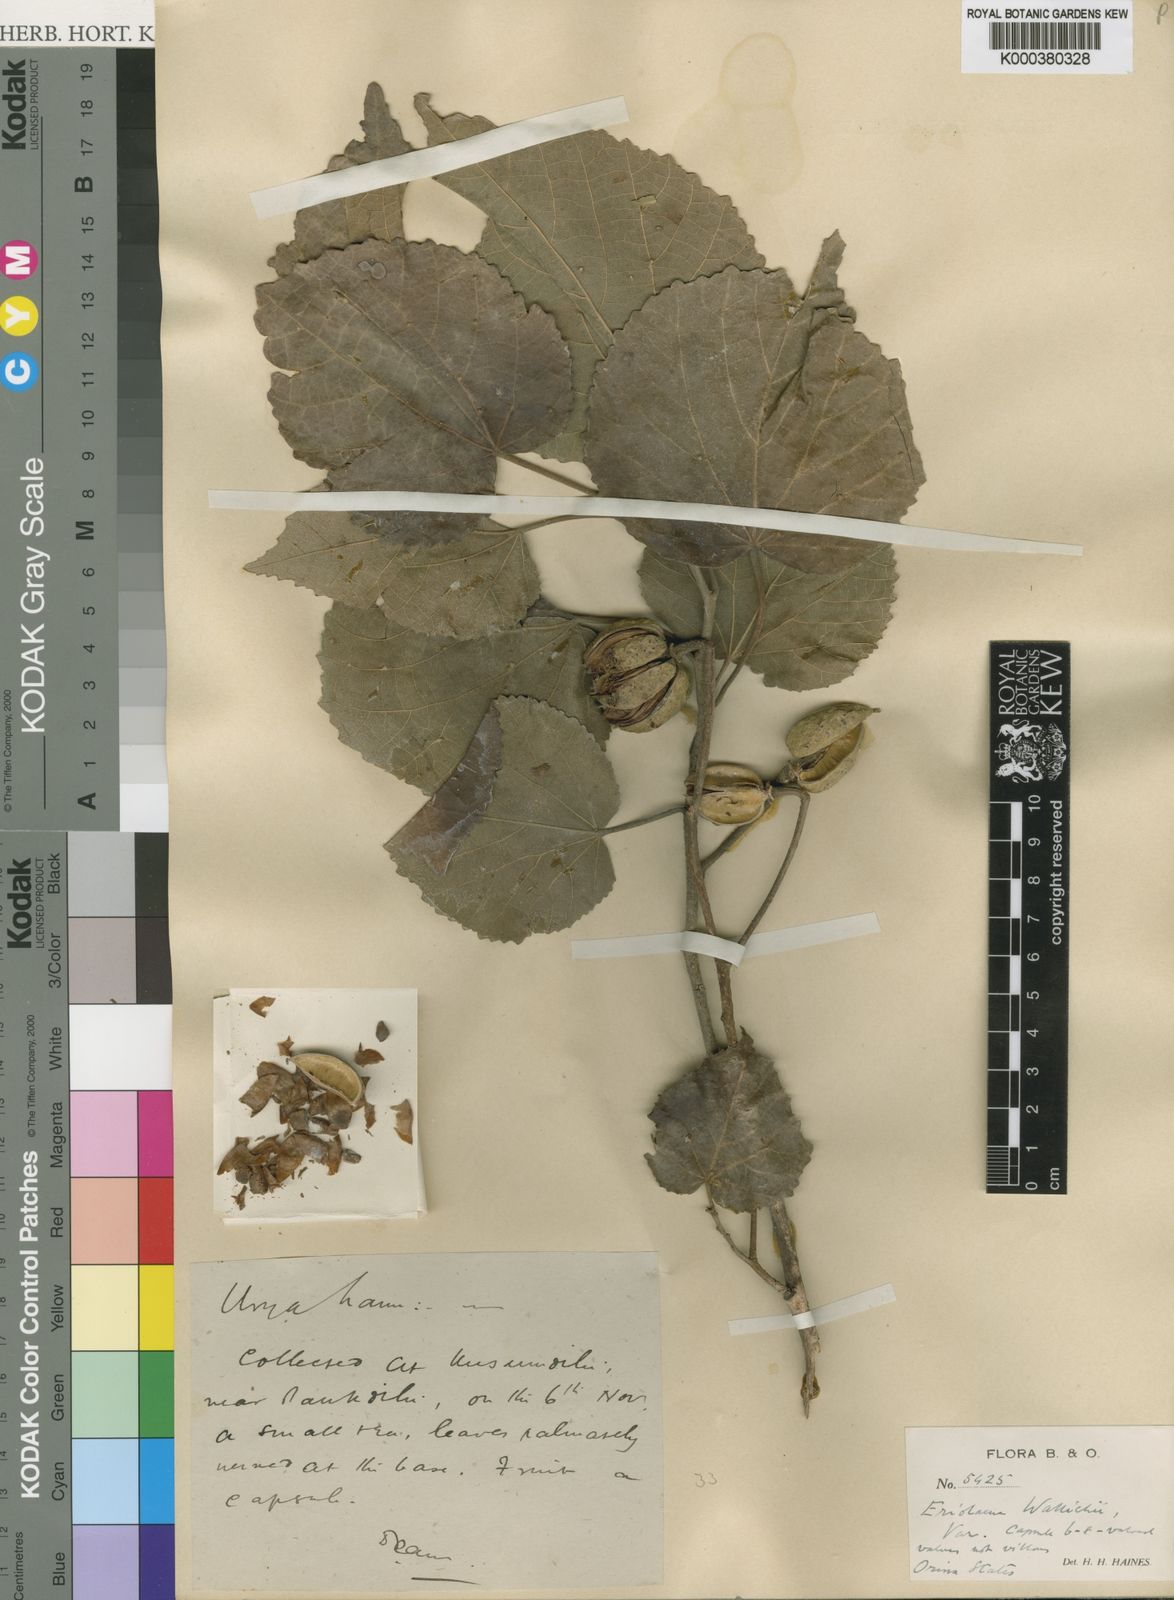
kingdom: Plantae
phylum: Tracheophyta
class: Magnoliopsida
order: Malvales
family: Malvaceae
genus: Eriolaena
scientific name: Eriolaena wallichii
